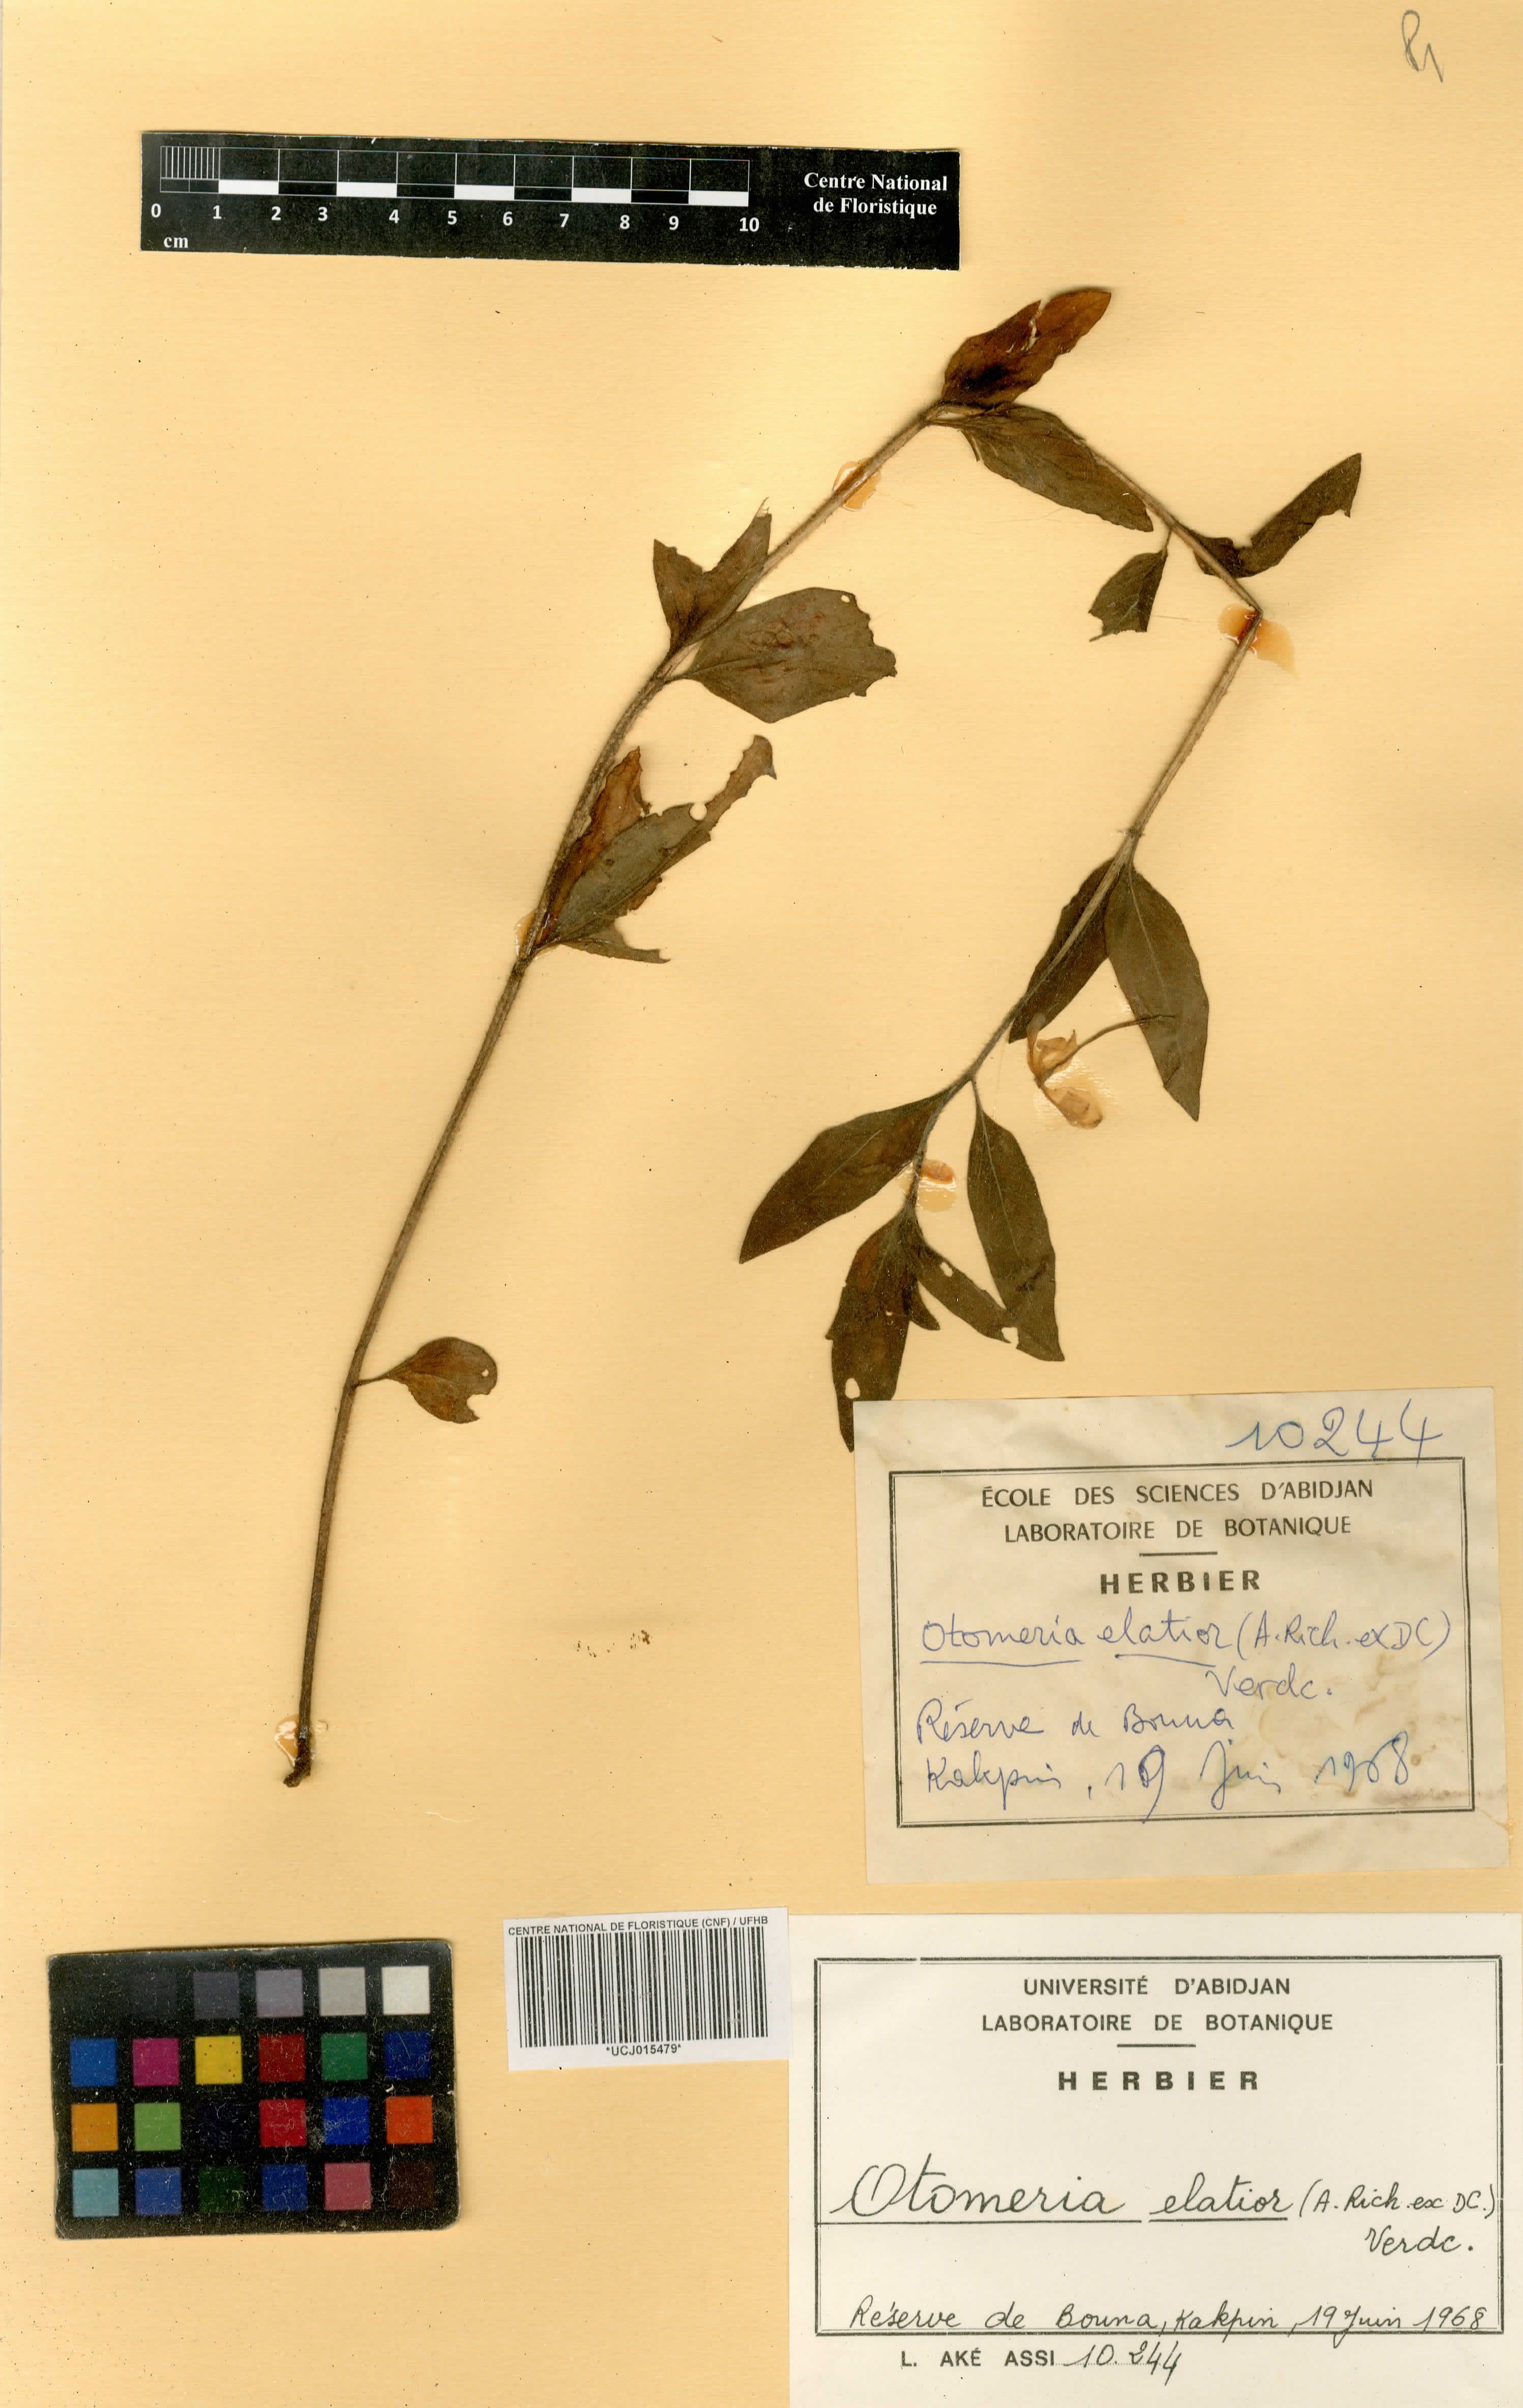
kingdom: Plantae
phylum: Tracheophyta
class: Magnoliopsida
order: Gentianales
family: Rubiaceae
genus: Otomeria
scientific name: Otomeria elatior
